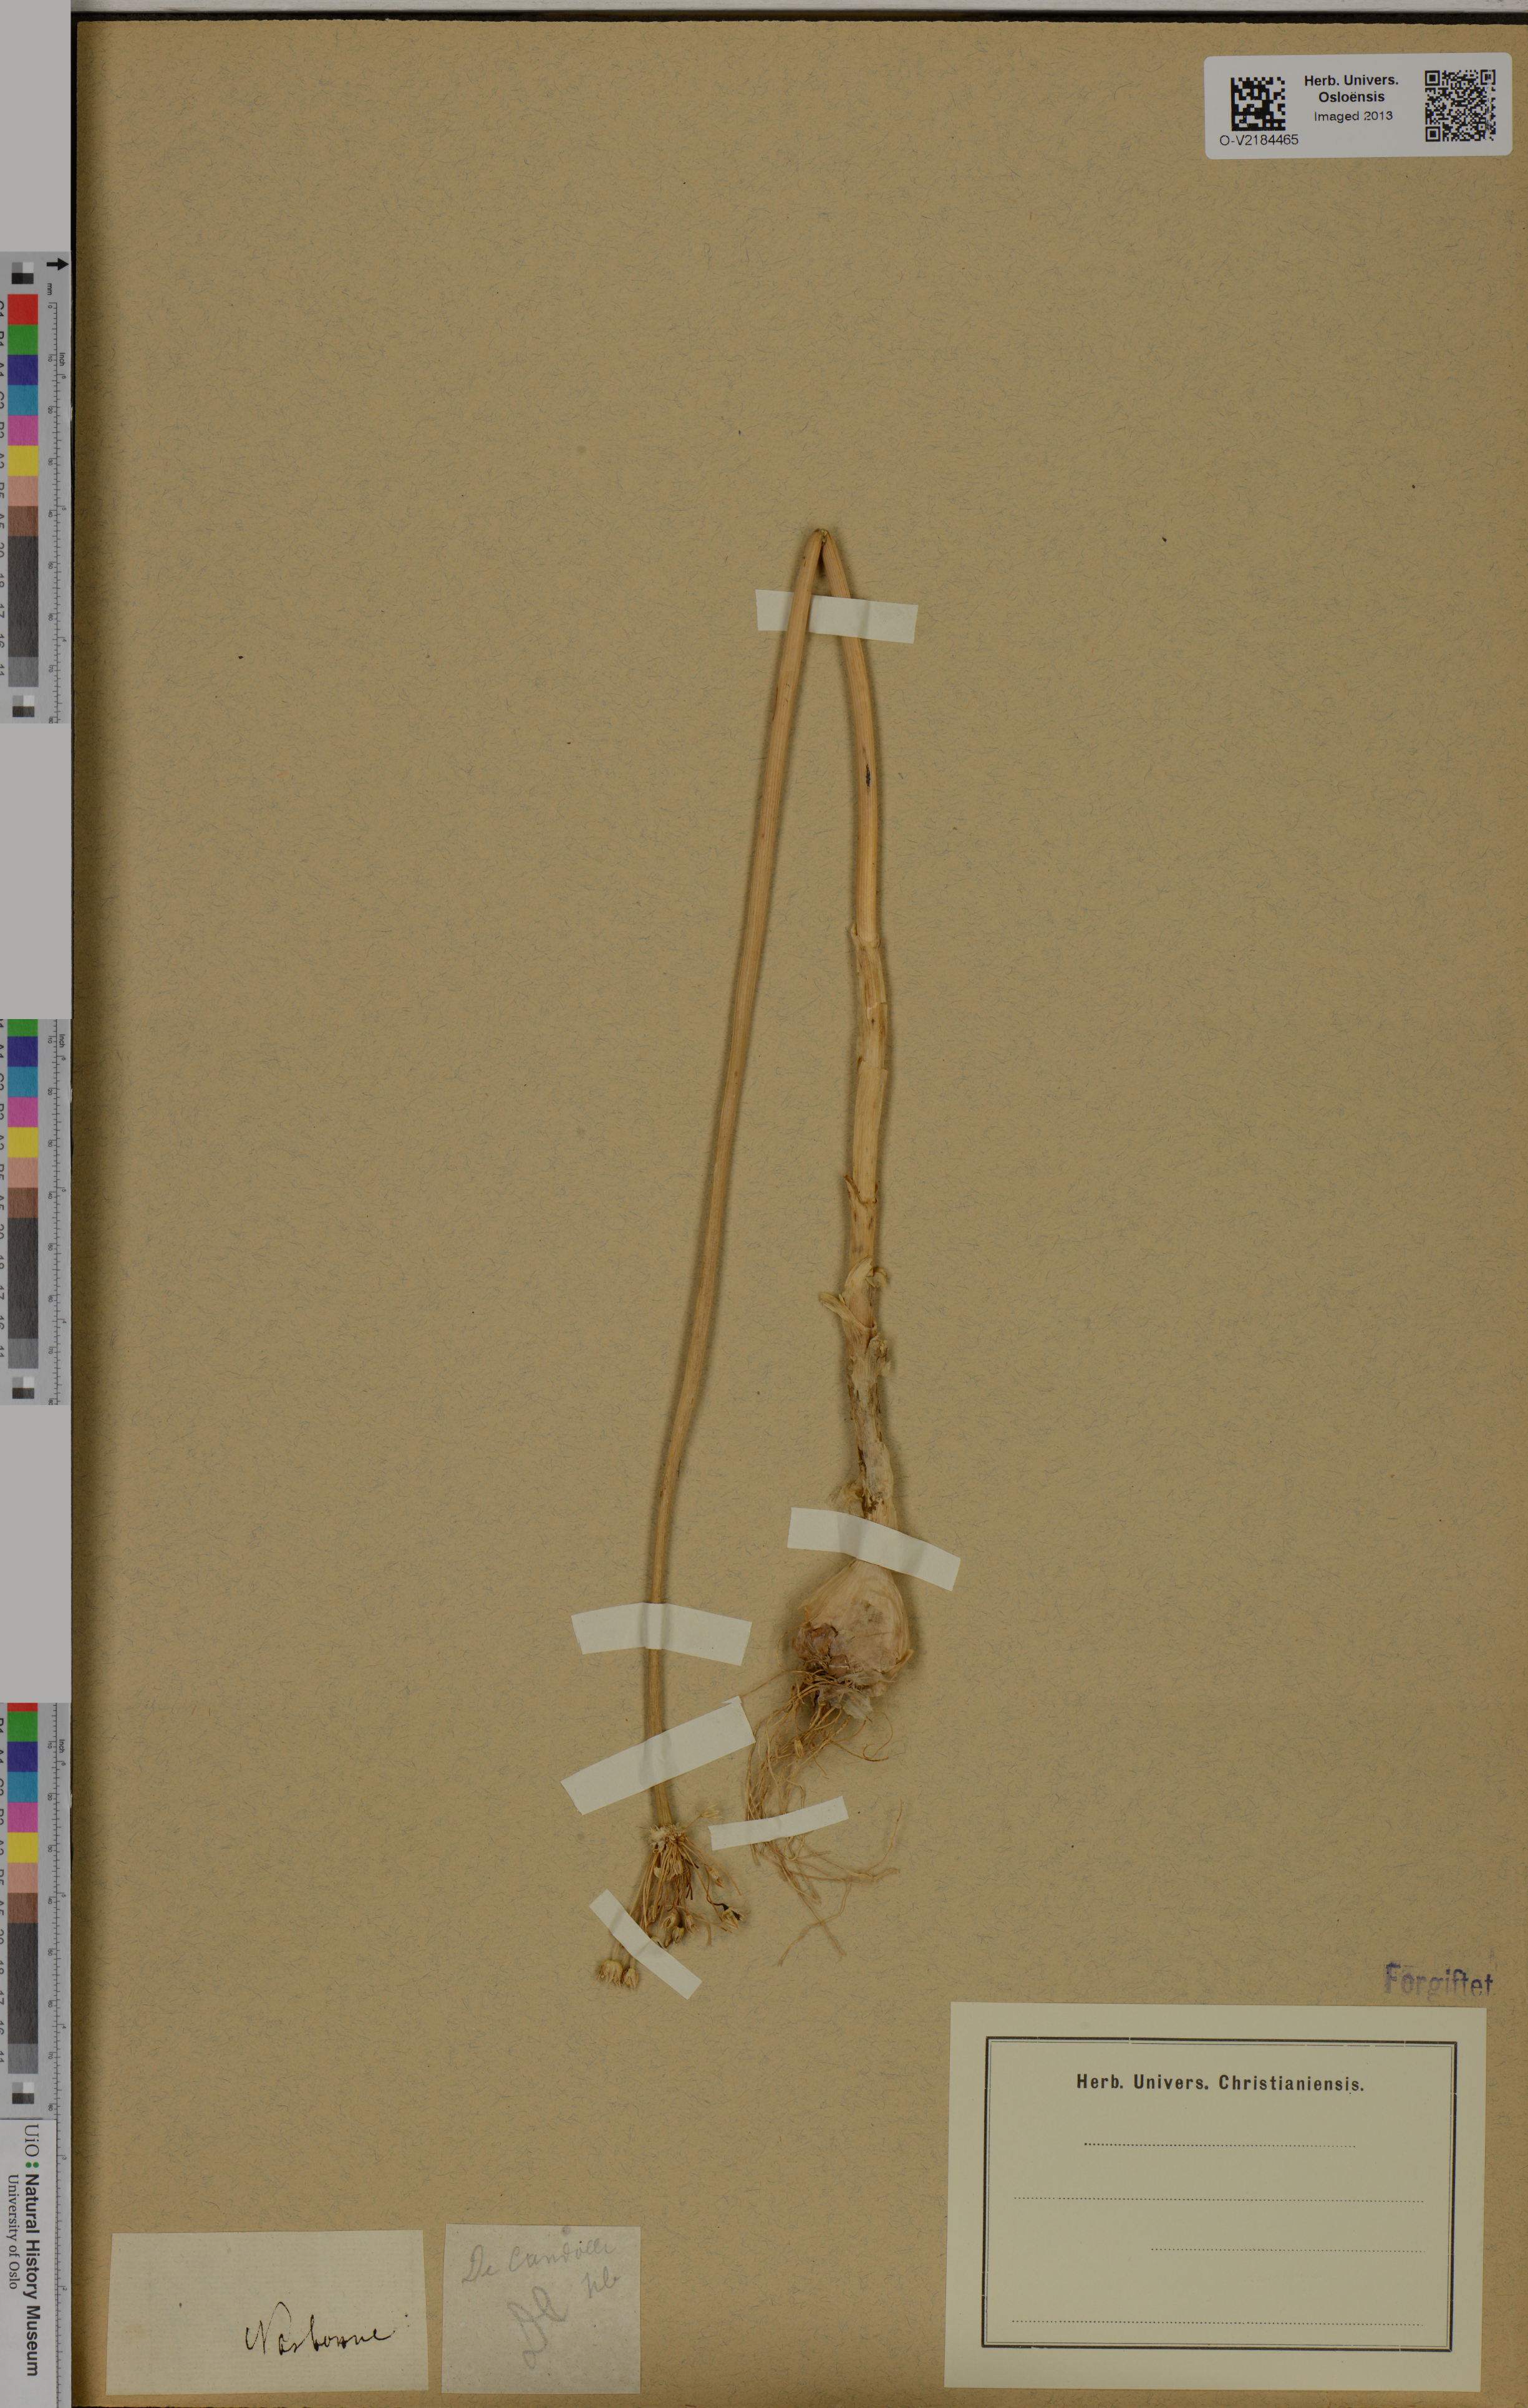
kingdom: Plantae
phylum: Tracheophyta
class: Liliopsida
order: Asparagales
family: Amaryllidaceae
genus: Allium
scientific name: Allium
